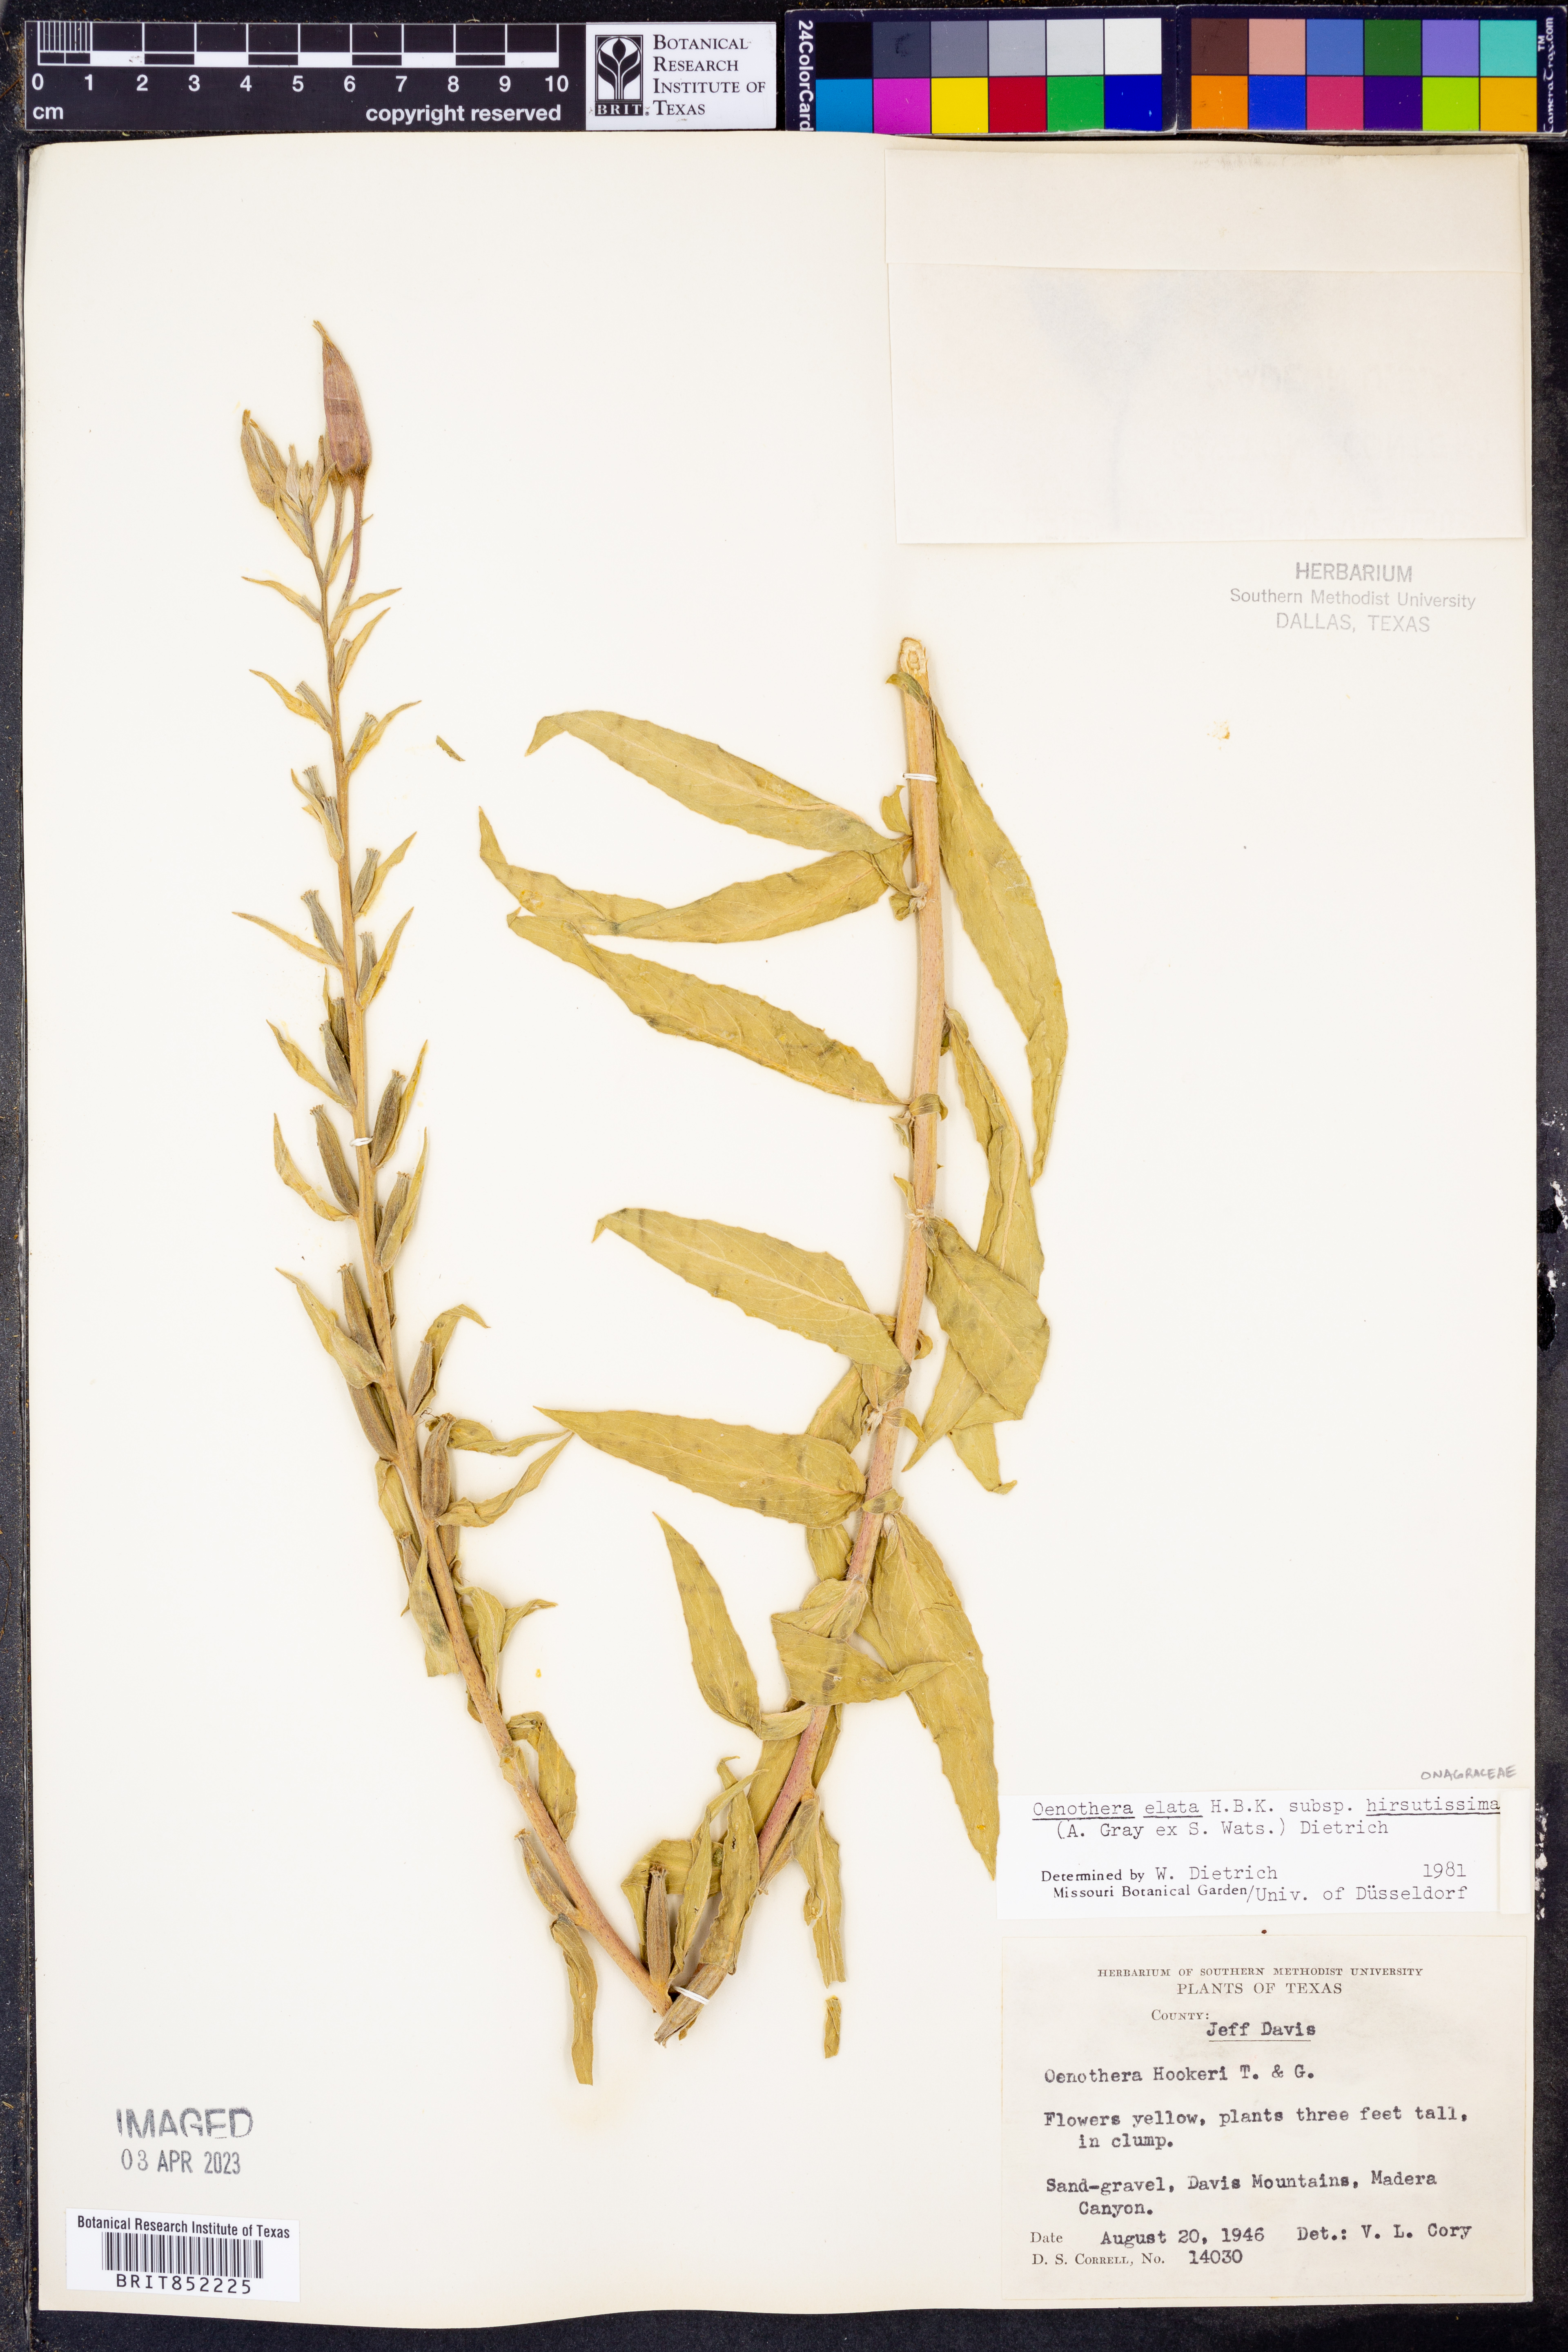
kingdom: Plantae
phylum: Tracheophyta
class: Magnoliopsida
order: Myrtales
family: Onagraceae
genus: Oenothera
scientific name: Oenothera elata
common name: Hooker's evening-primrose
